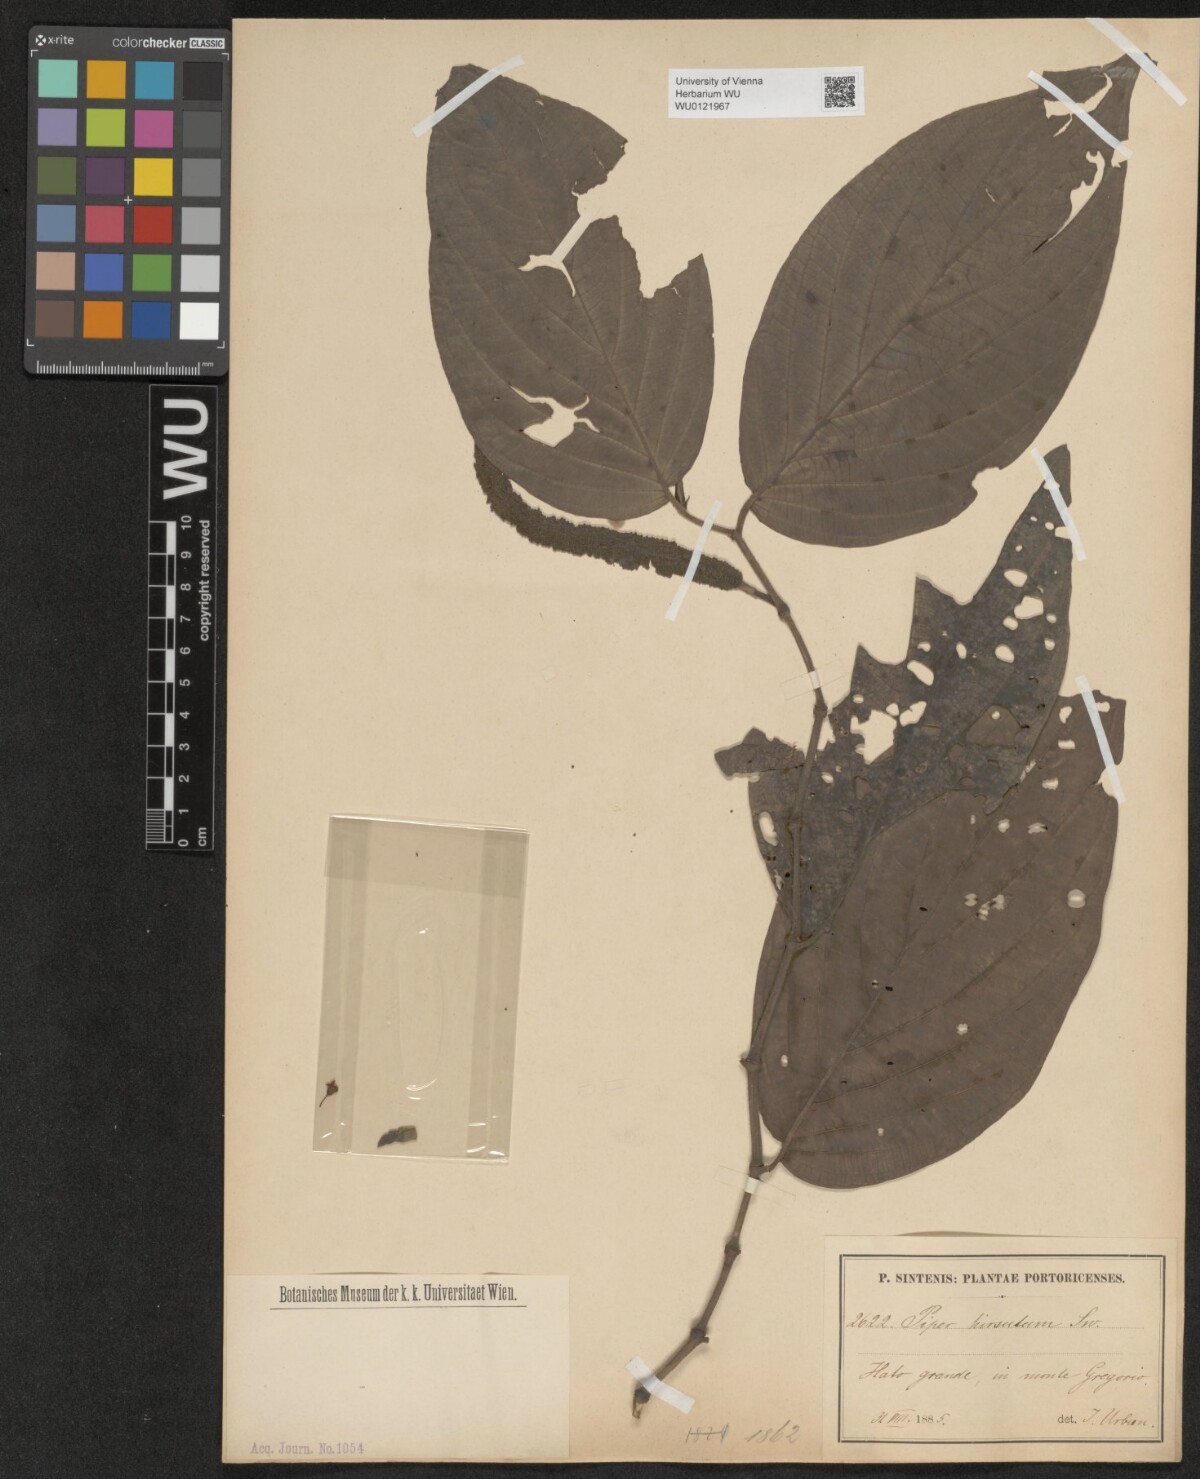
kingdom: Plantae
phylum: Tracheophyta
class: Magnoliopsida
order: Piperales
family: Piperaceae
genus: Piper
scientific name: Piper hispidum
